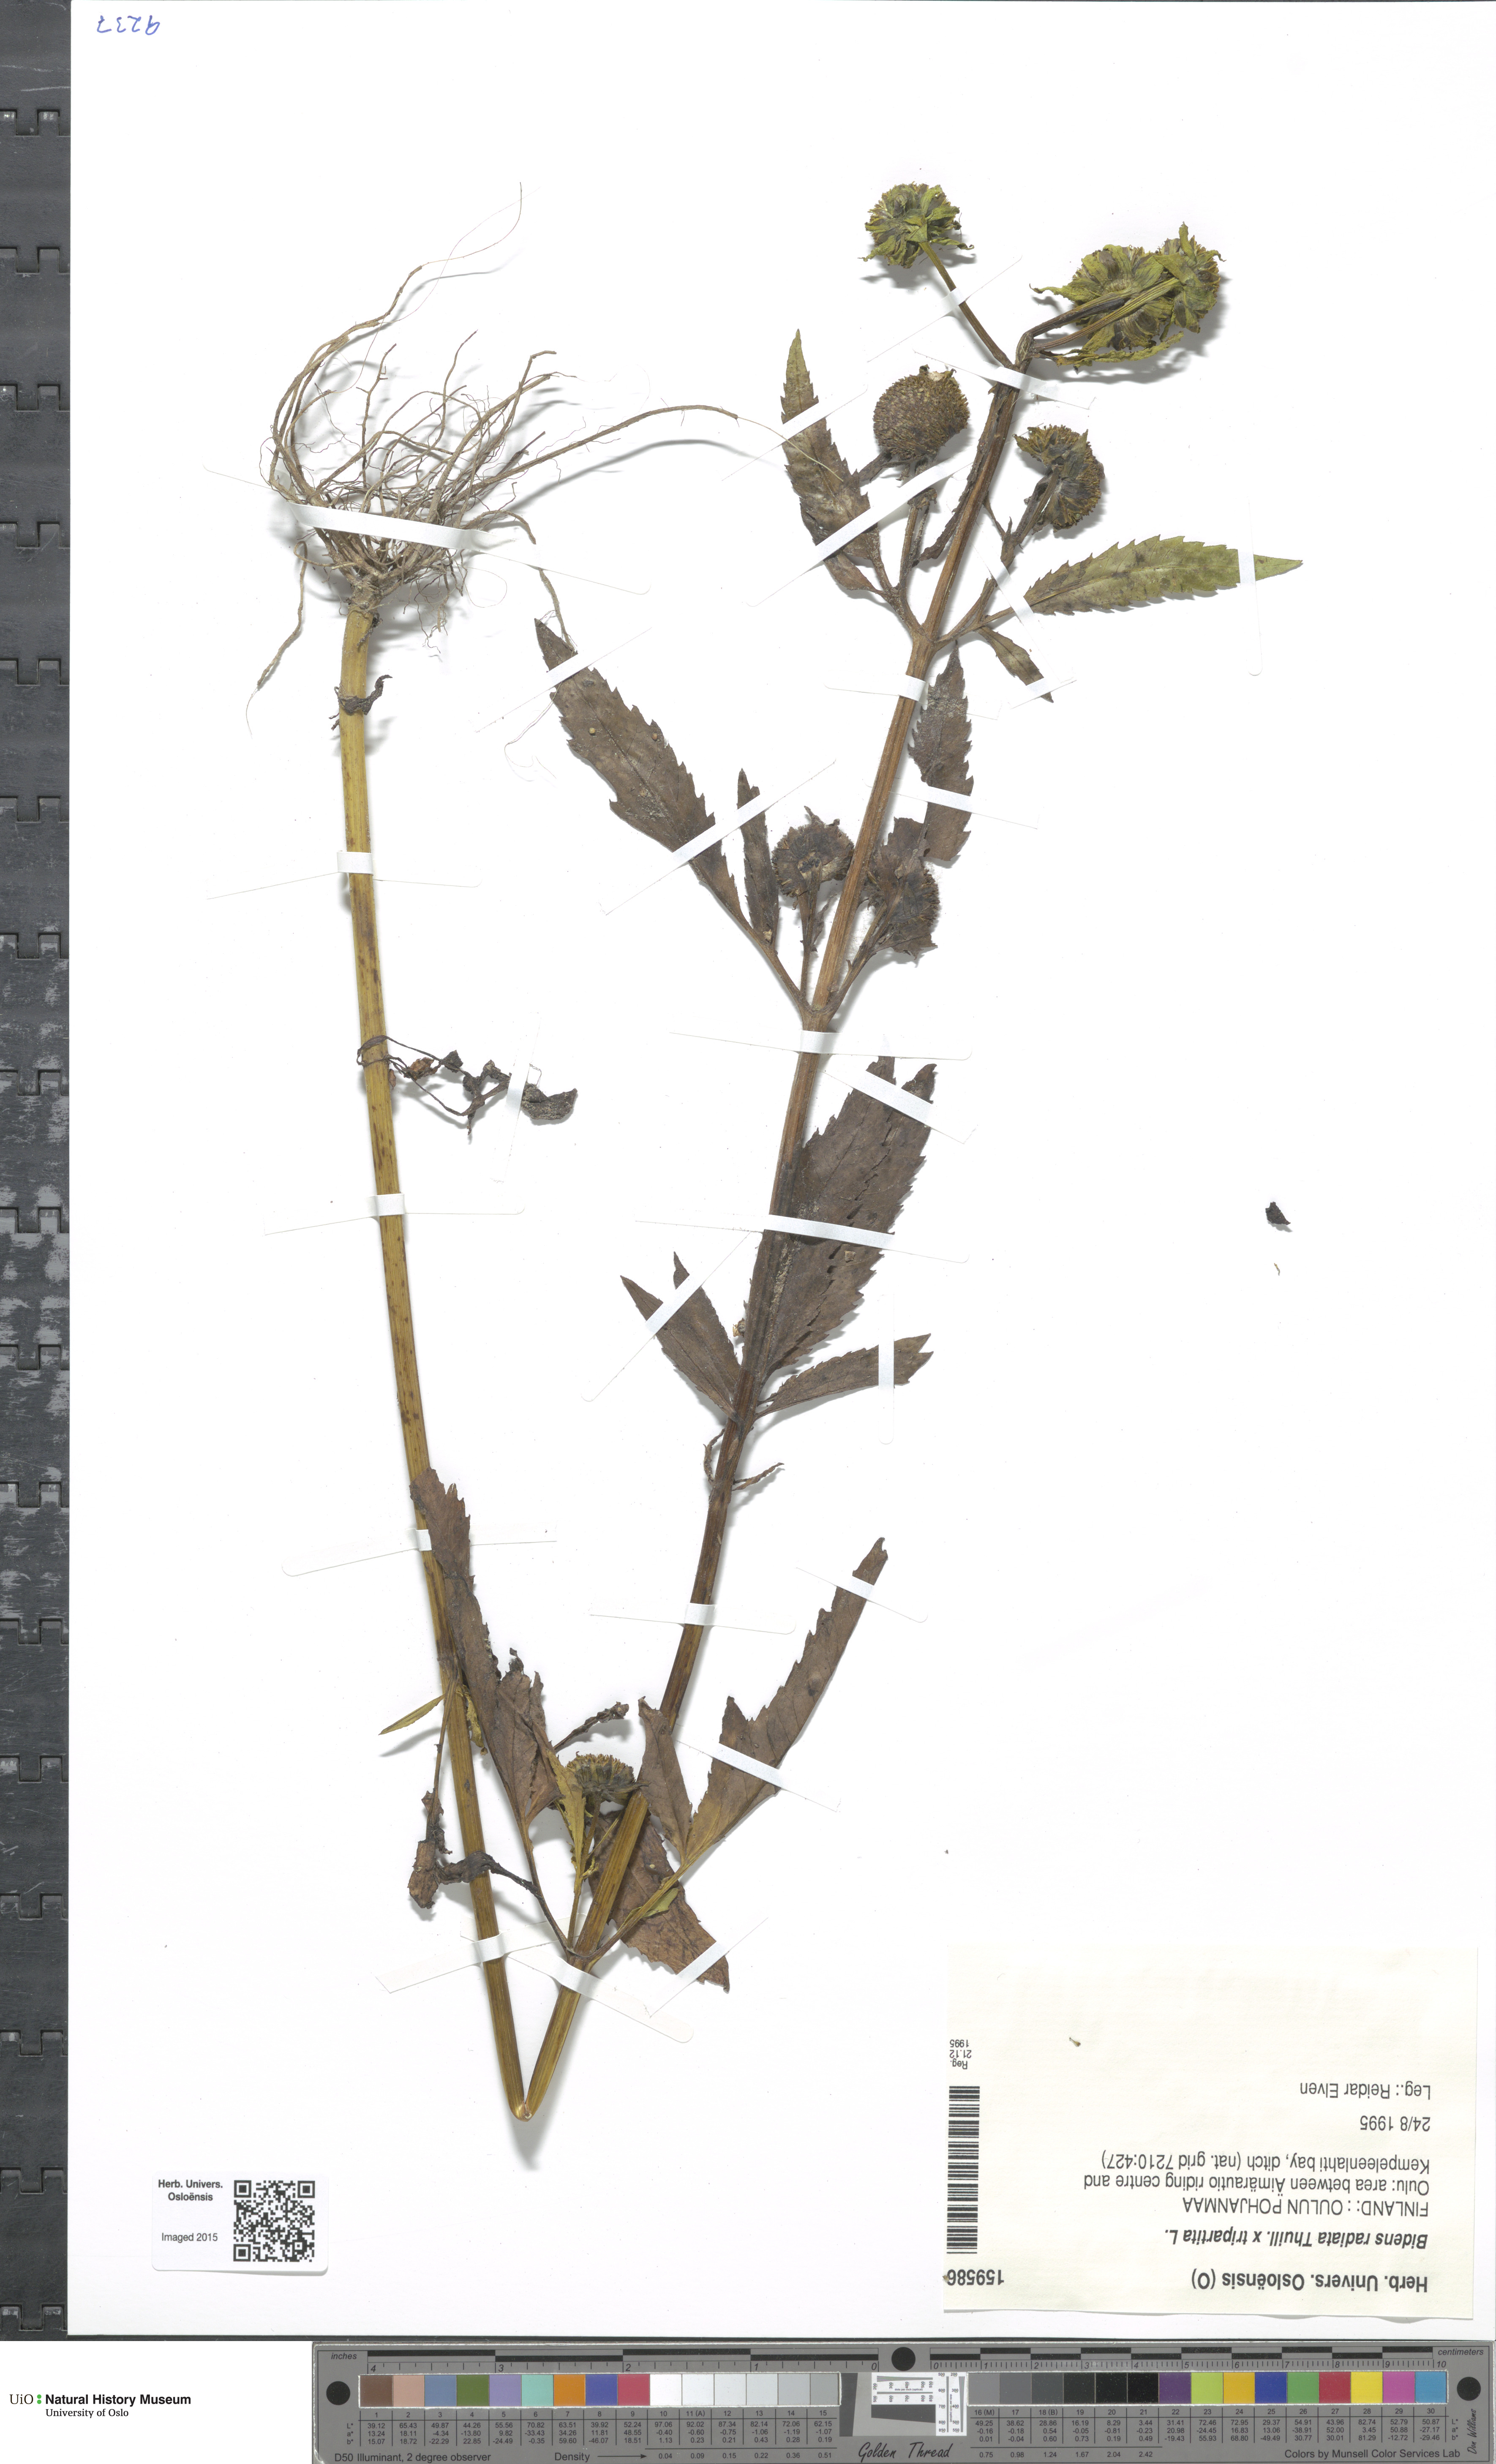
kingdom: Plantae
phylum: Tracheophyta
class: Magnoliopsida
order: Asterales
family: Asteraceae
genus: Bidens
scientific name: Bidens
